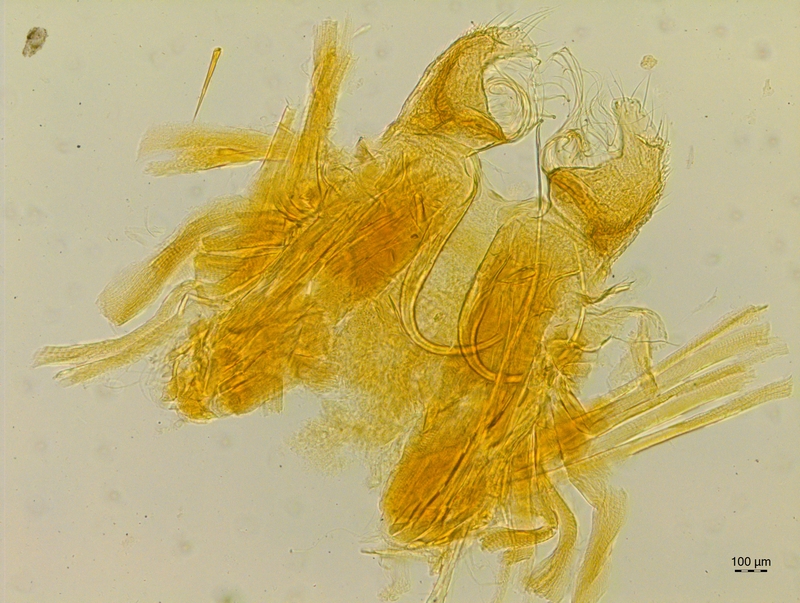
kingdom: Animalia
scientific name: Animalia
